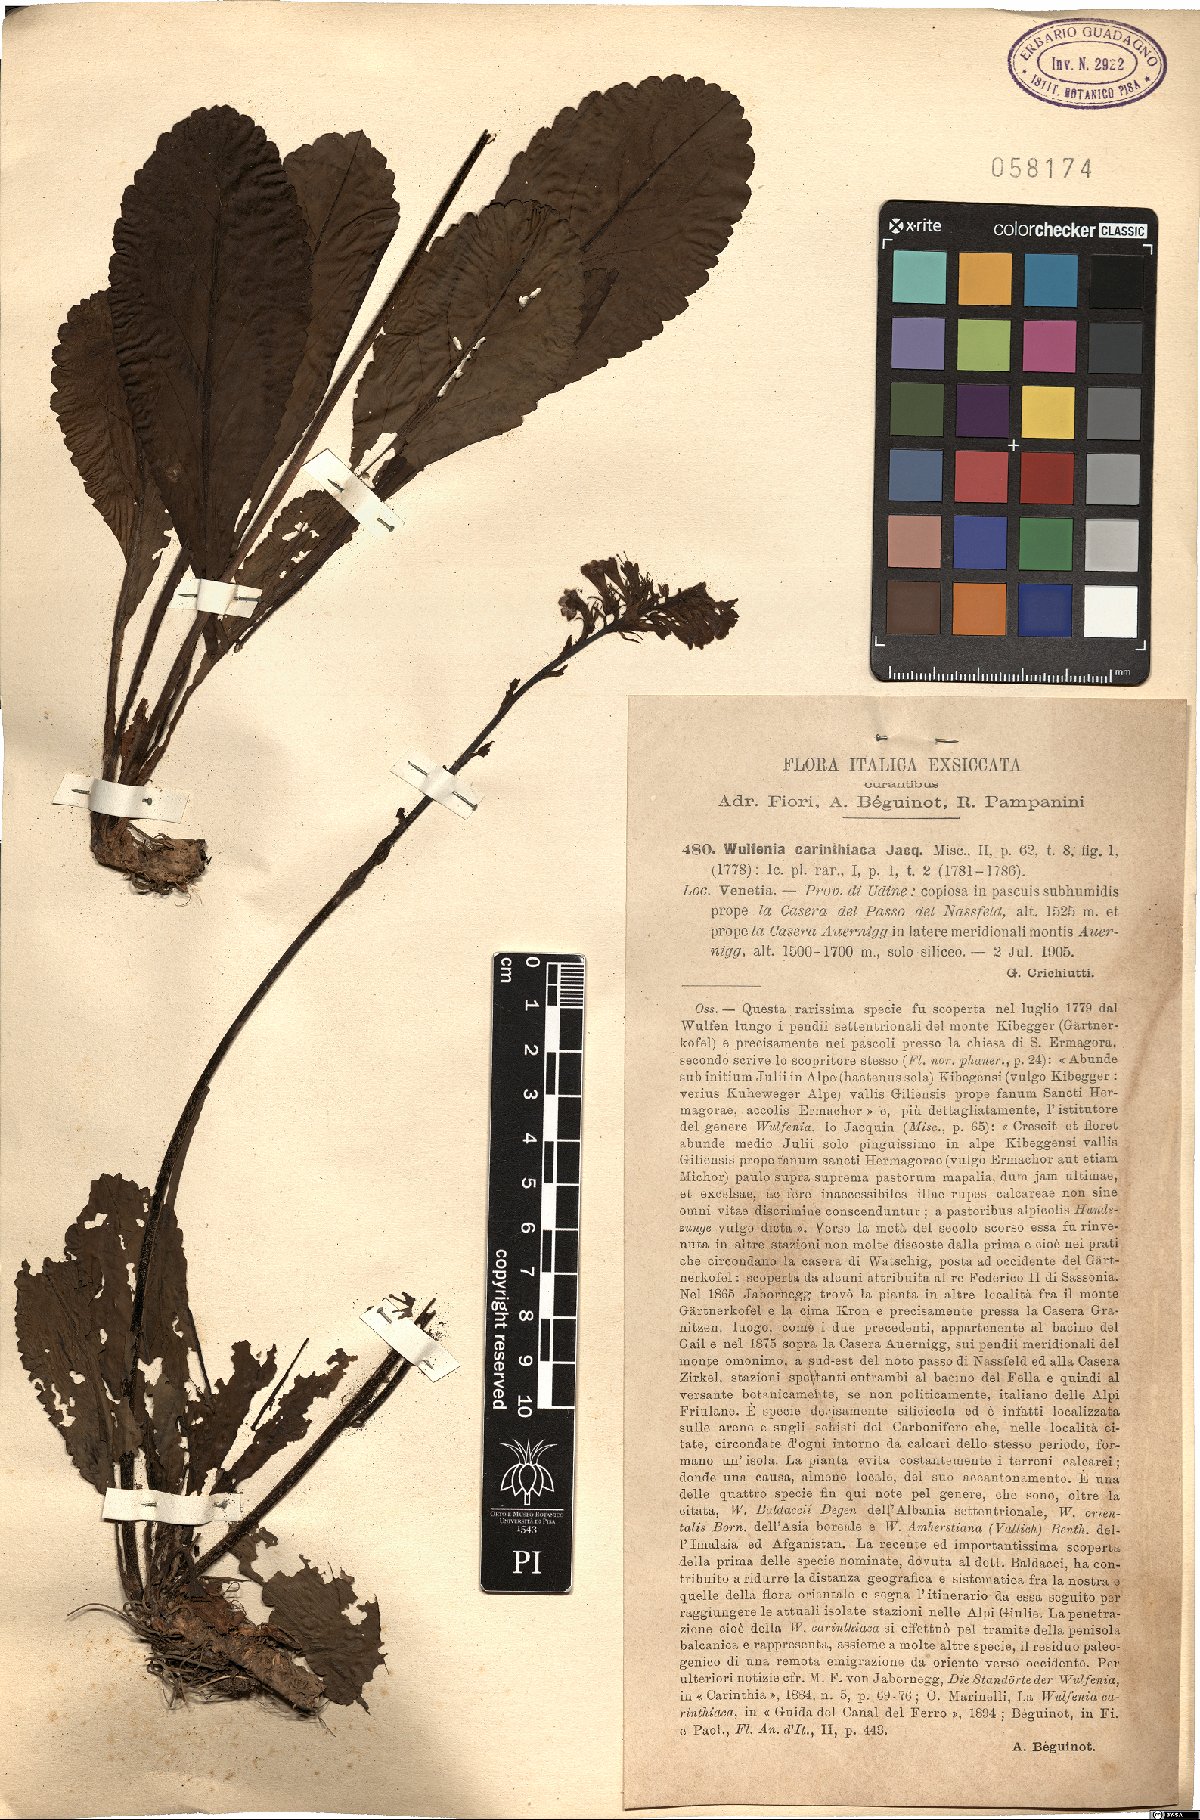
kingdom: Plantae
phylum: Tracheophyta
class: Magnoliopsida
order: Lamiales
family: Plantaginaceae
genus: Wulfenia
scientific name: Wulfenia carinthiaca
